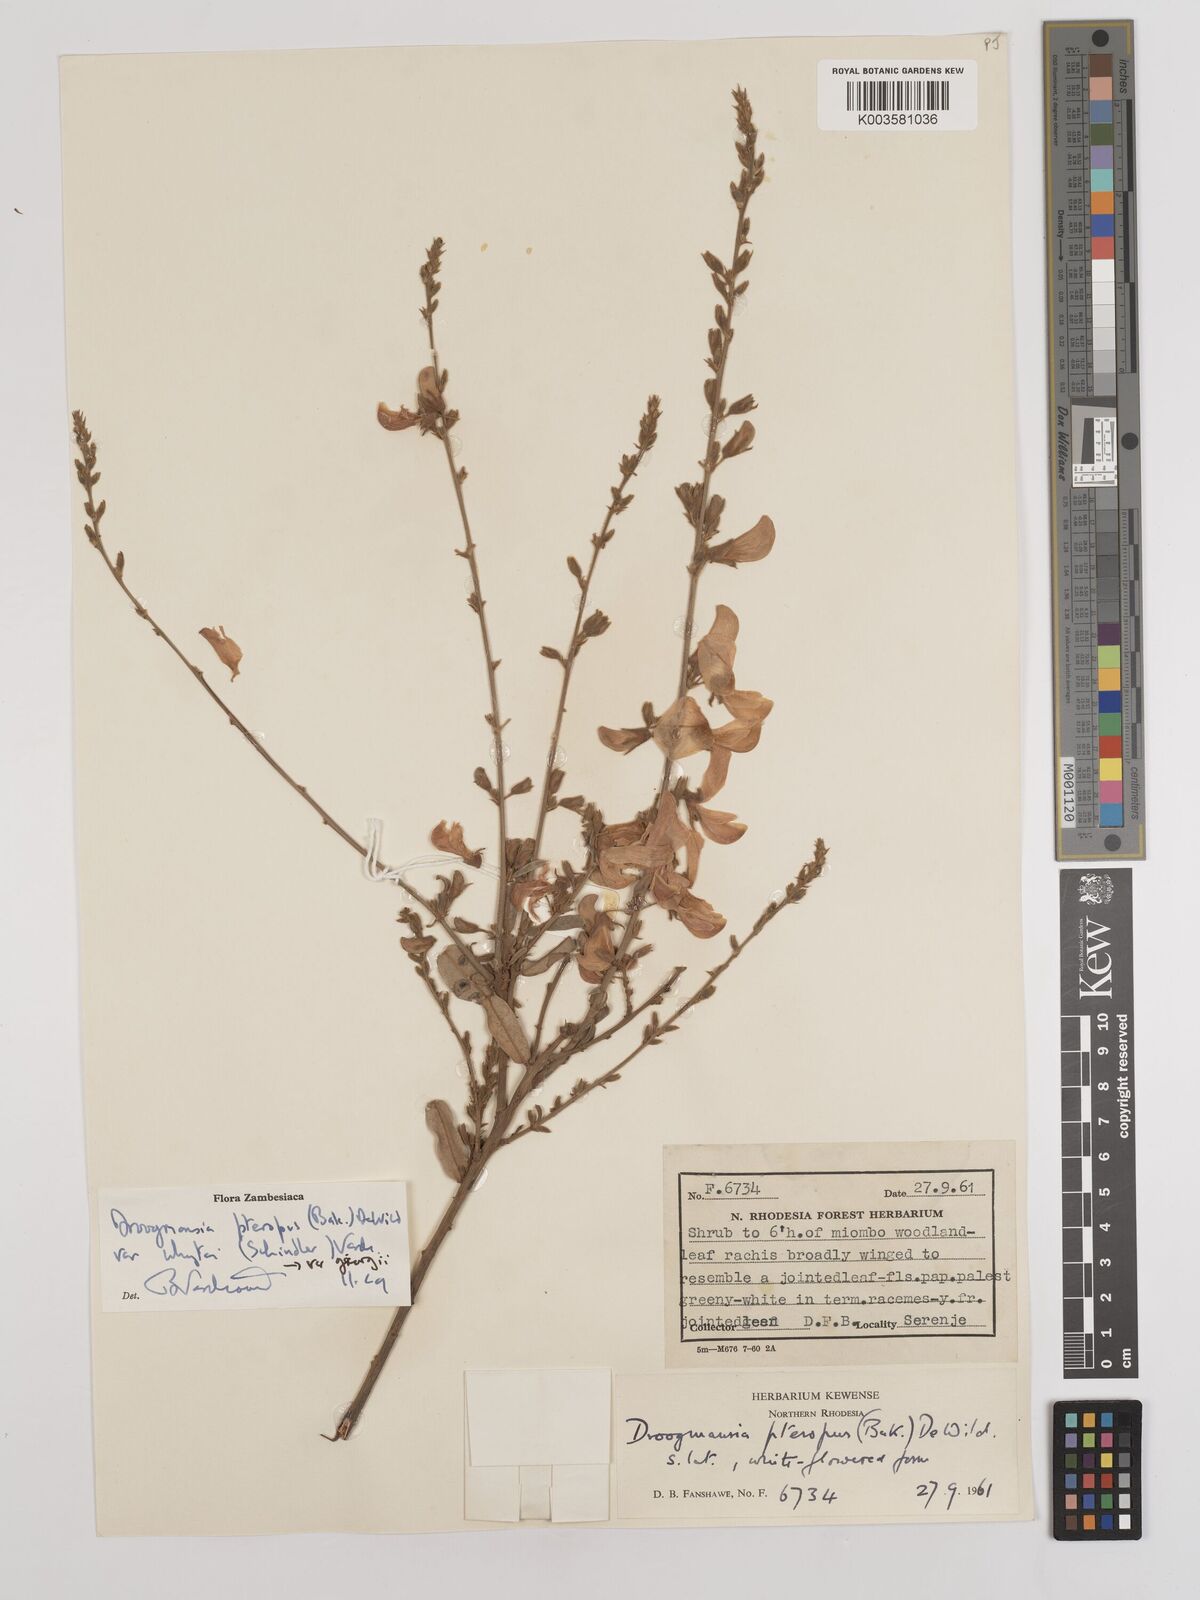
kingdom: Plantae
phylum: Tracheophyta
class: Magnoliopsida
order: Fabales
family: Fabaceae
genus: Droogmansia
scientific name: Droogmansia pteropus
